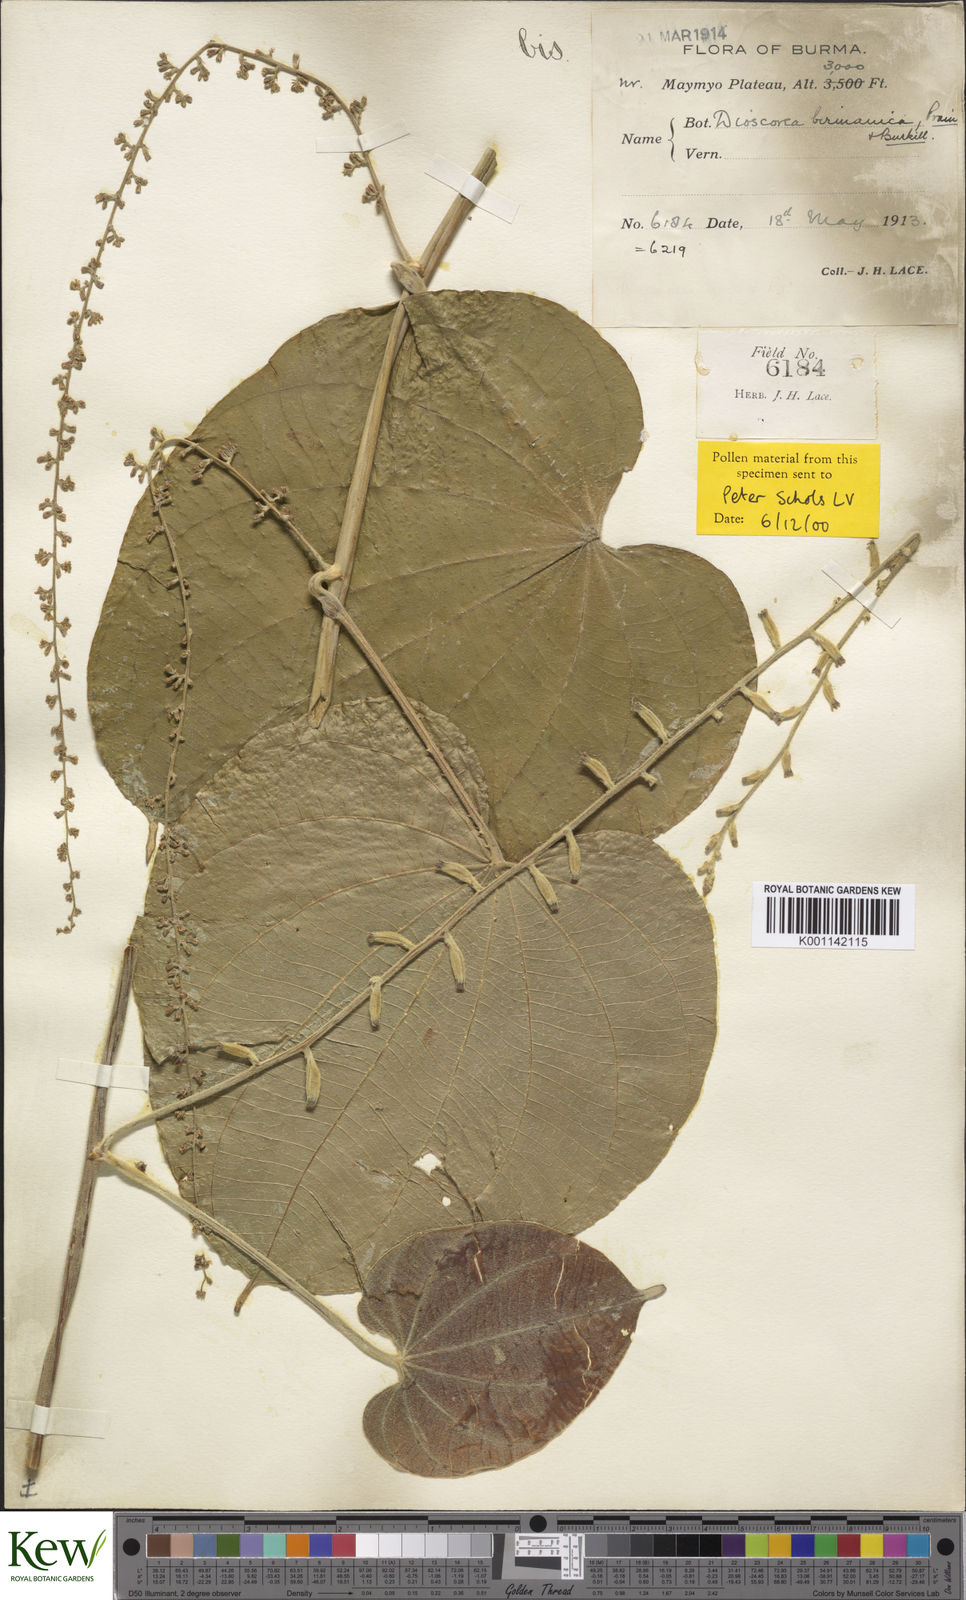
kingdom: Plantae
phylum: Tracheophyta
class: Liliopsida
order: Dioscoreales
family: Dioscoreaceae
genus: Dioscorea
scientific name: Dioscorea birmanica
